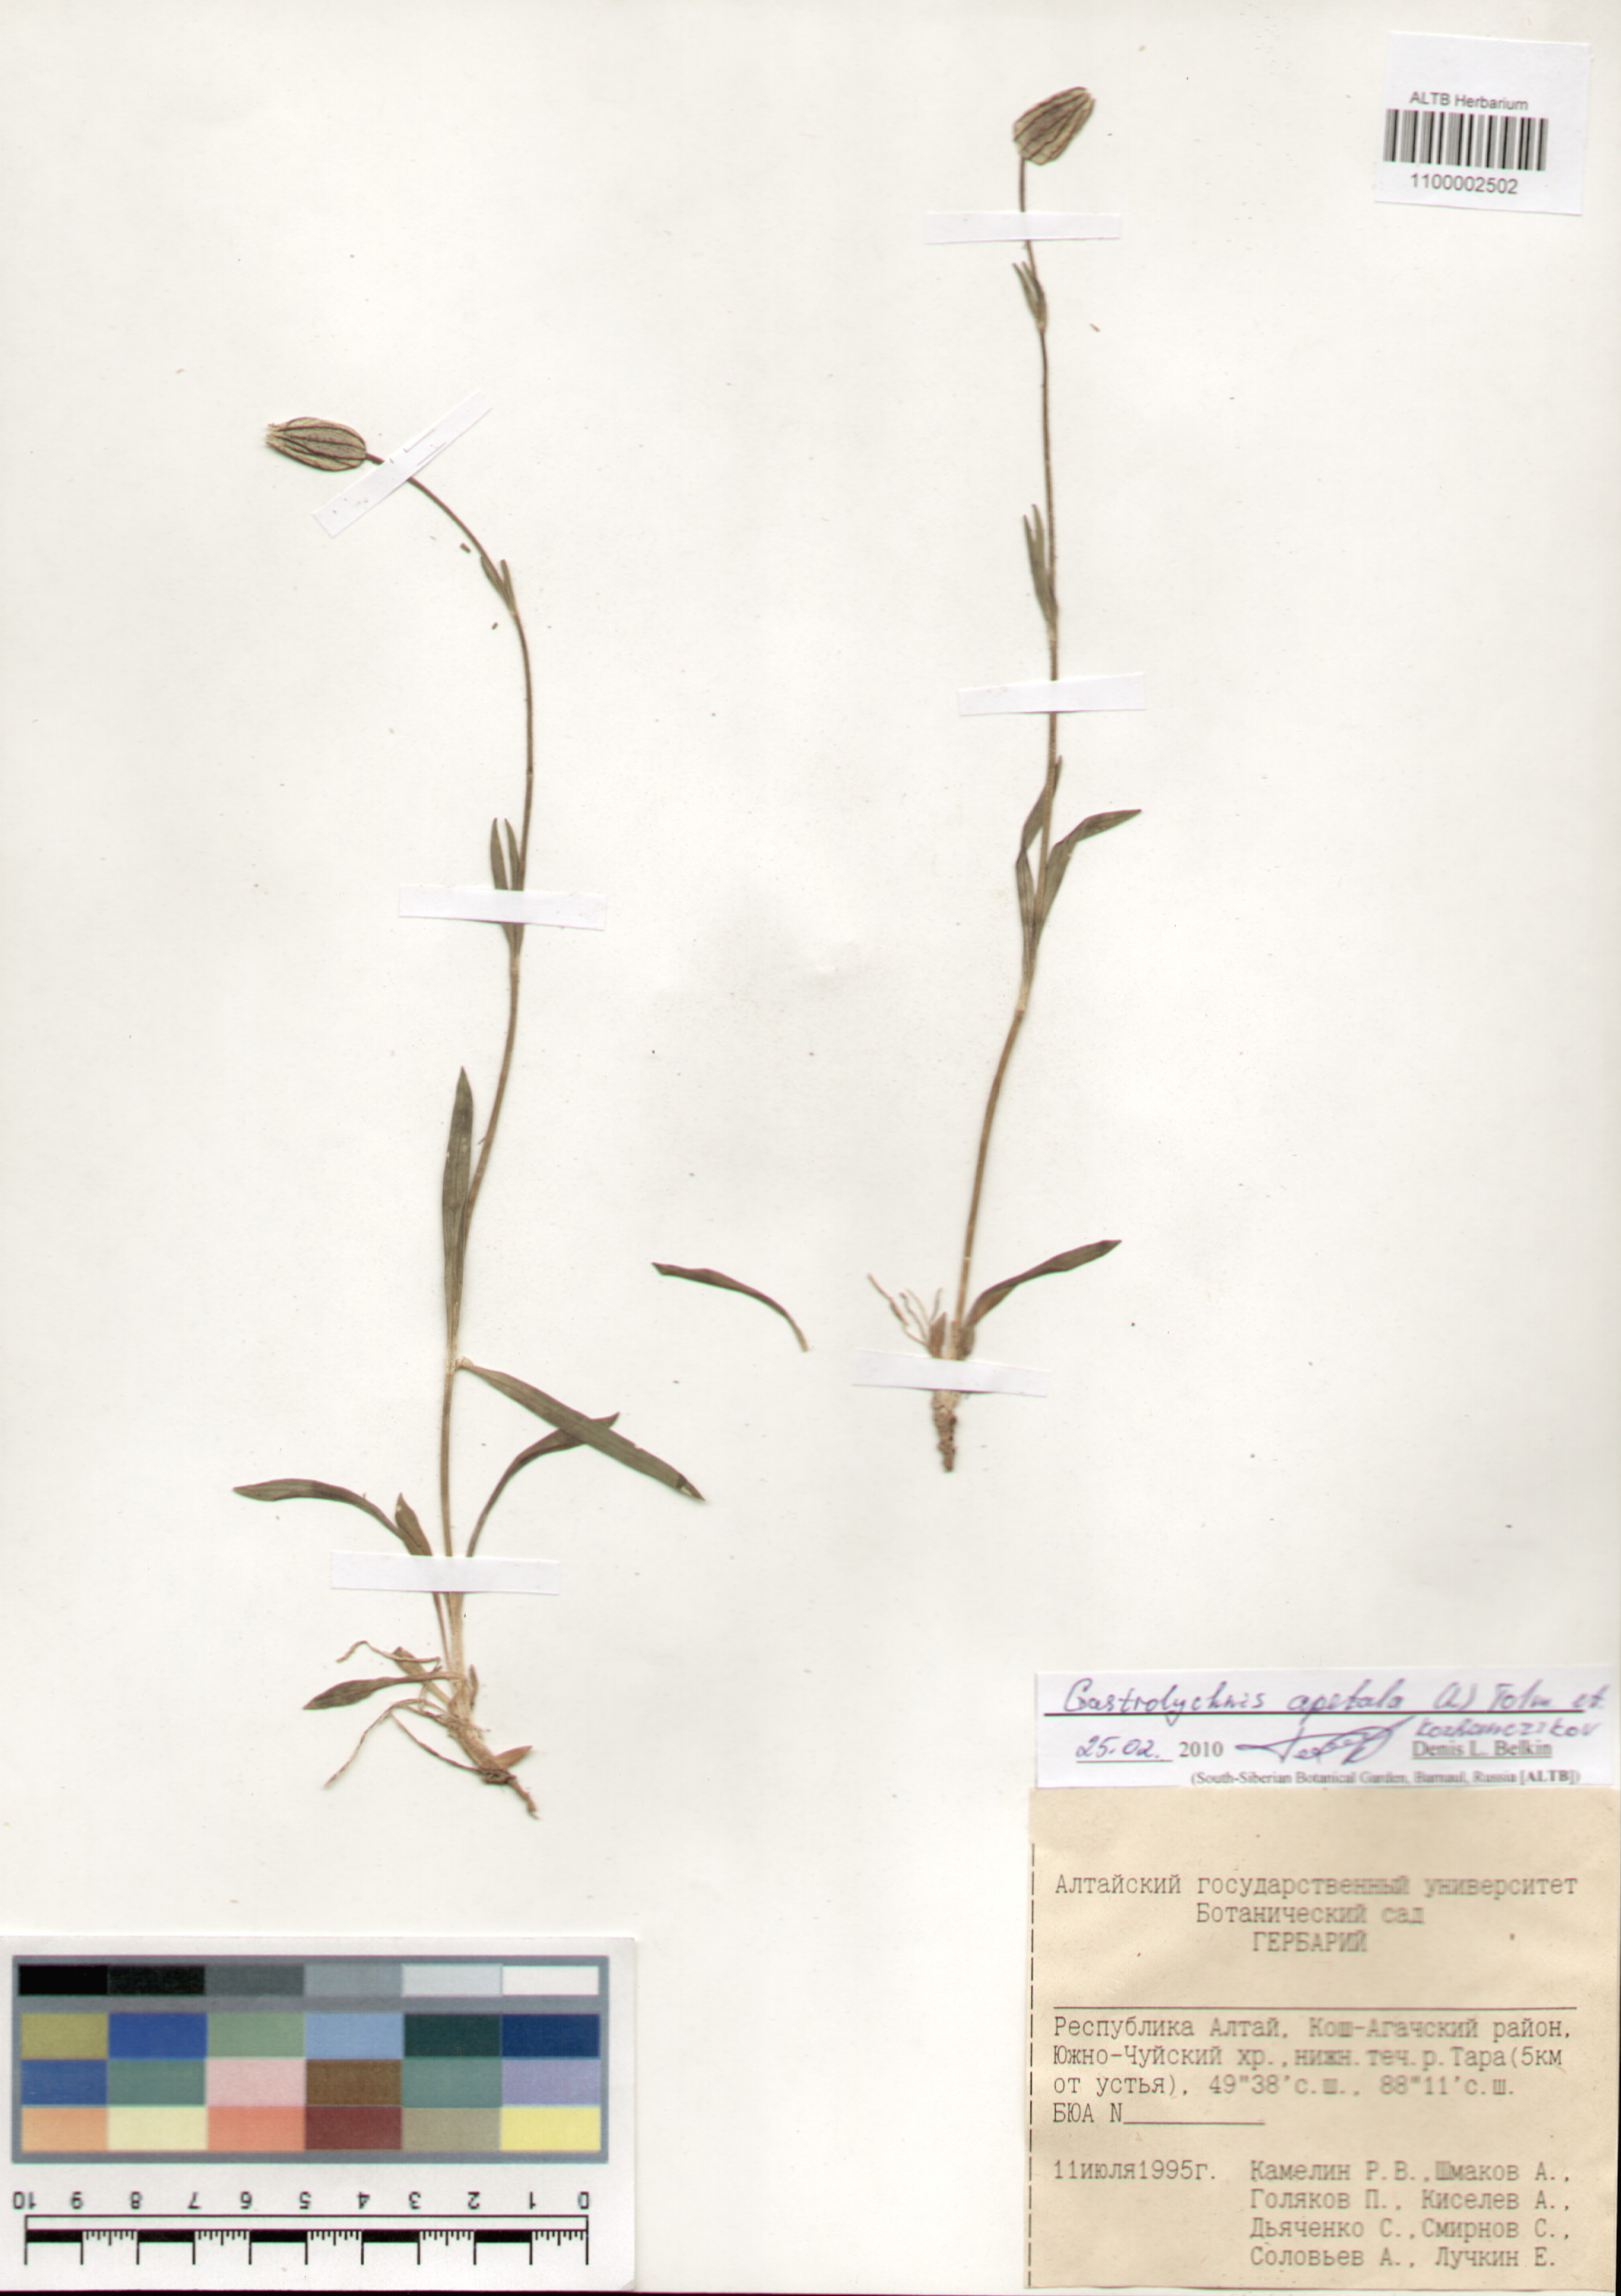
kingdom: Plantae
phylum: Tracheophyta
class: Magnoliopsida
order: Caryophyllales
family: Caryophyllaceae
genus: Silene
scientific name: Silene wahlbergella
